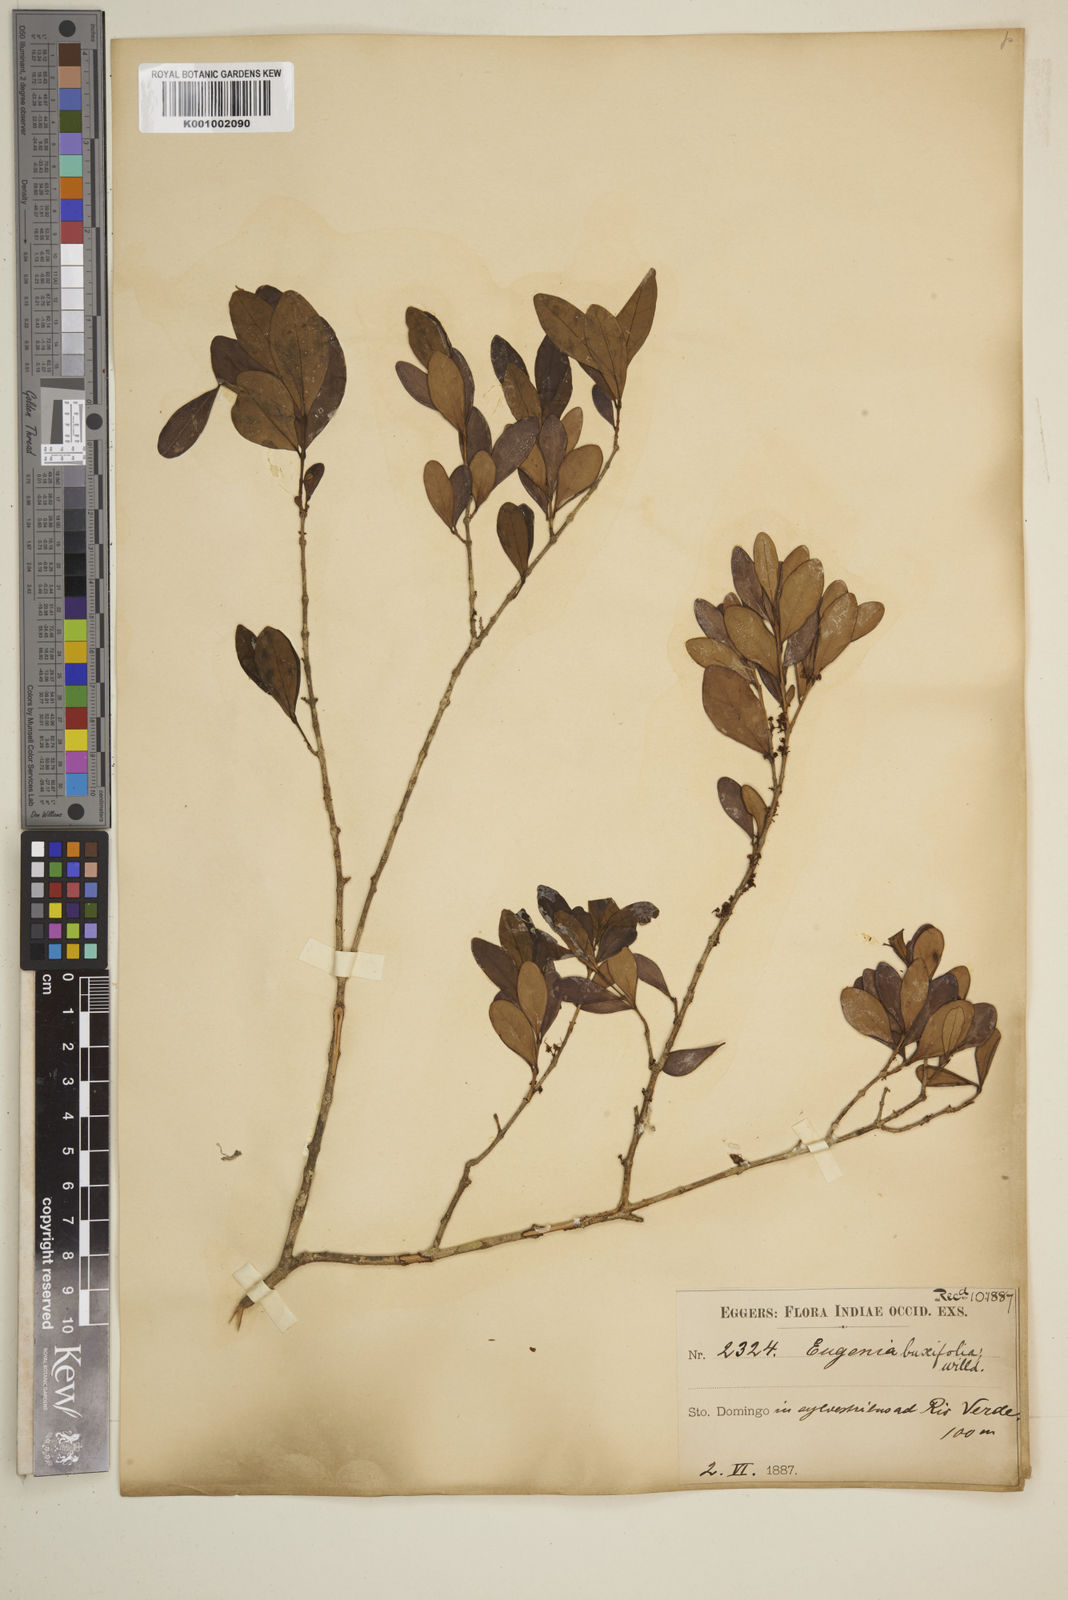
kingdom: Plantae
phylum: Tracheophyta
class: Magnoliopsida
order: Myrtales
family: Myrtaceae
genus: Eugenia
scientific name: Eugenia buxifolia
